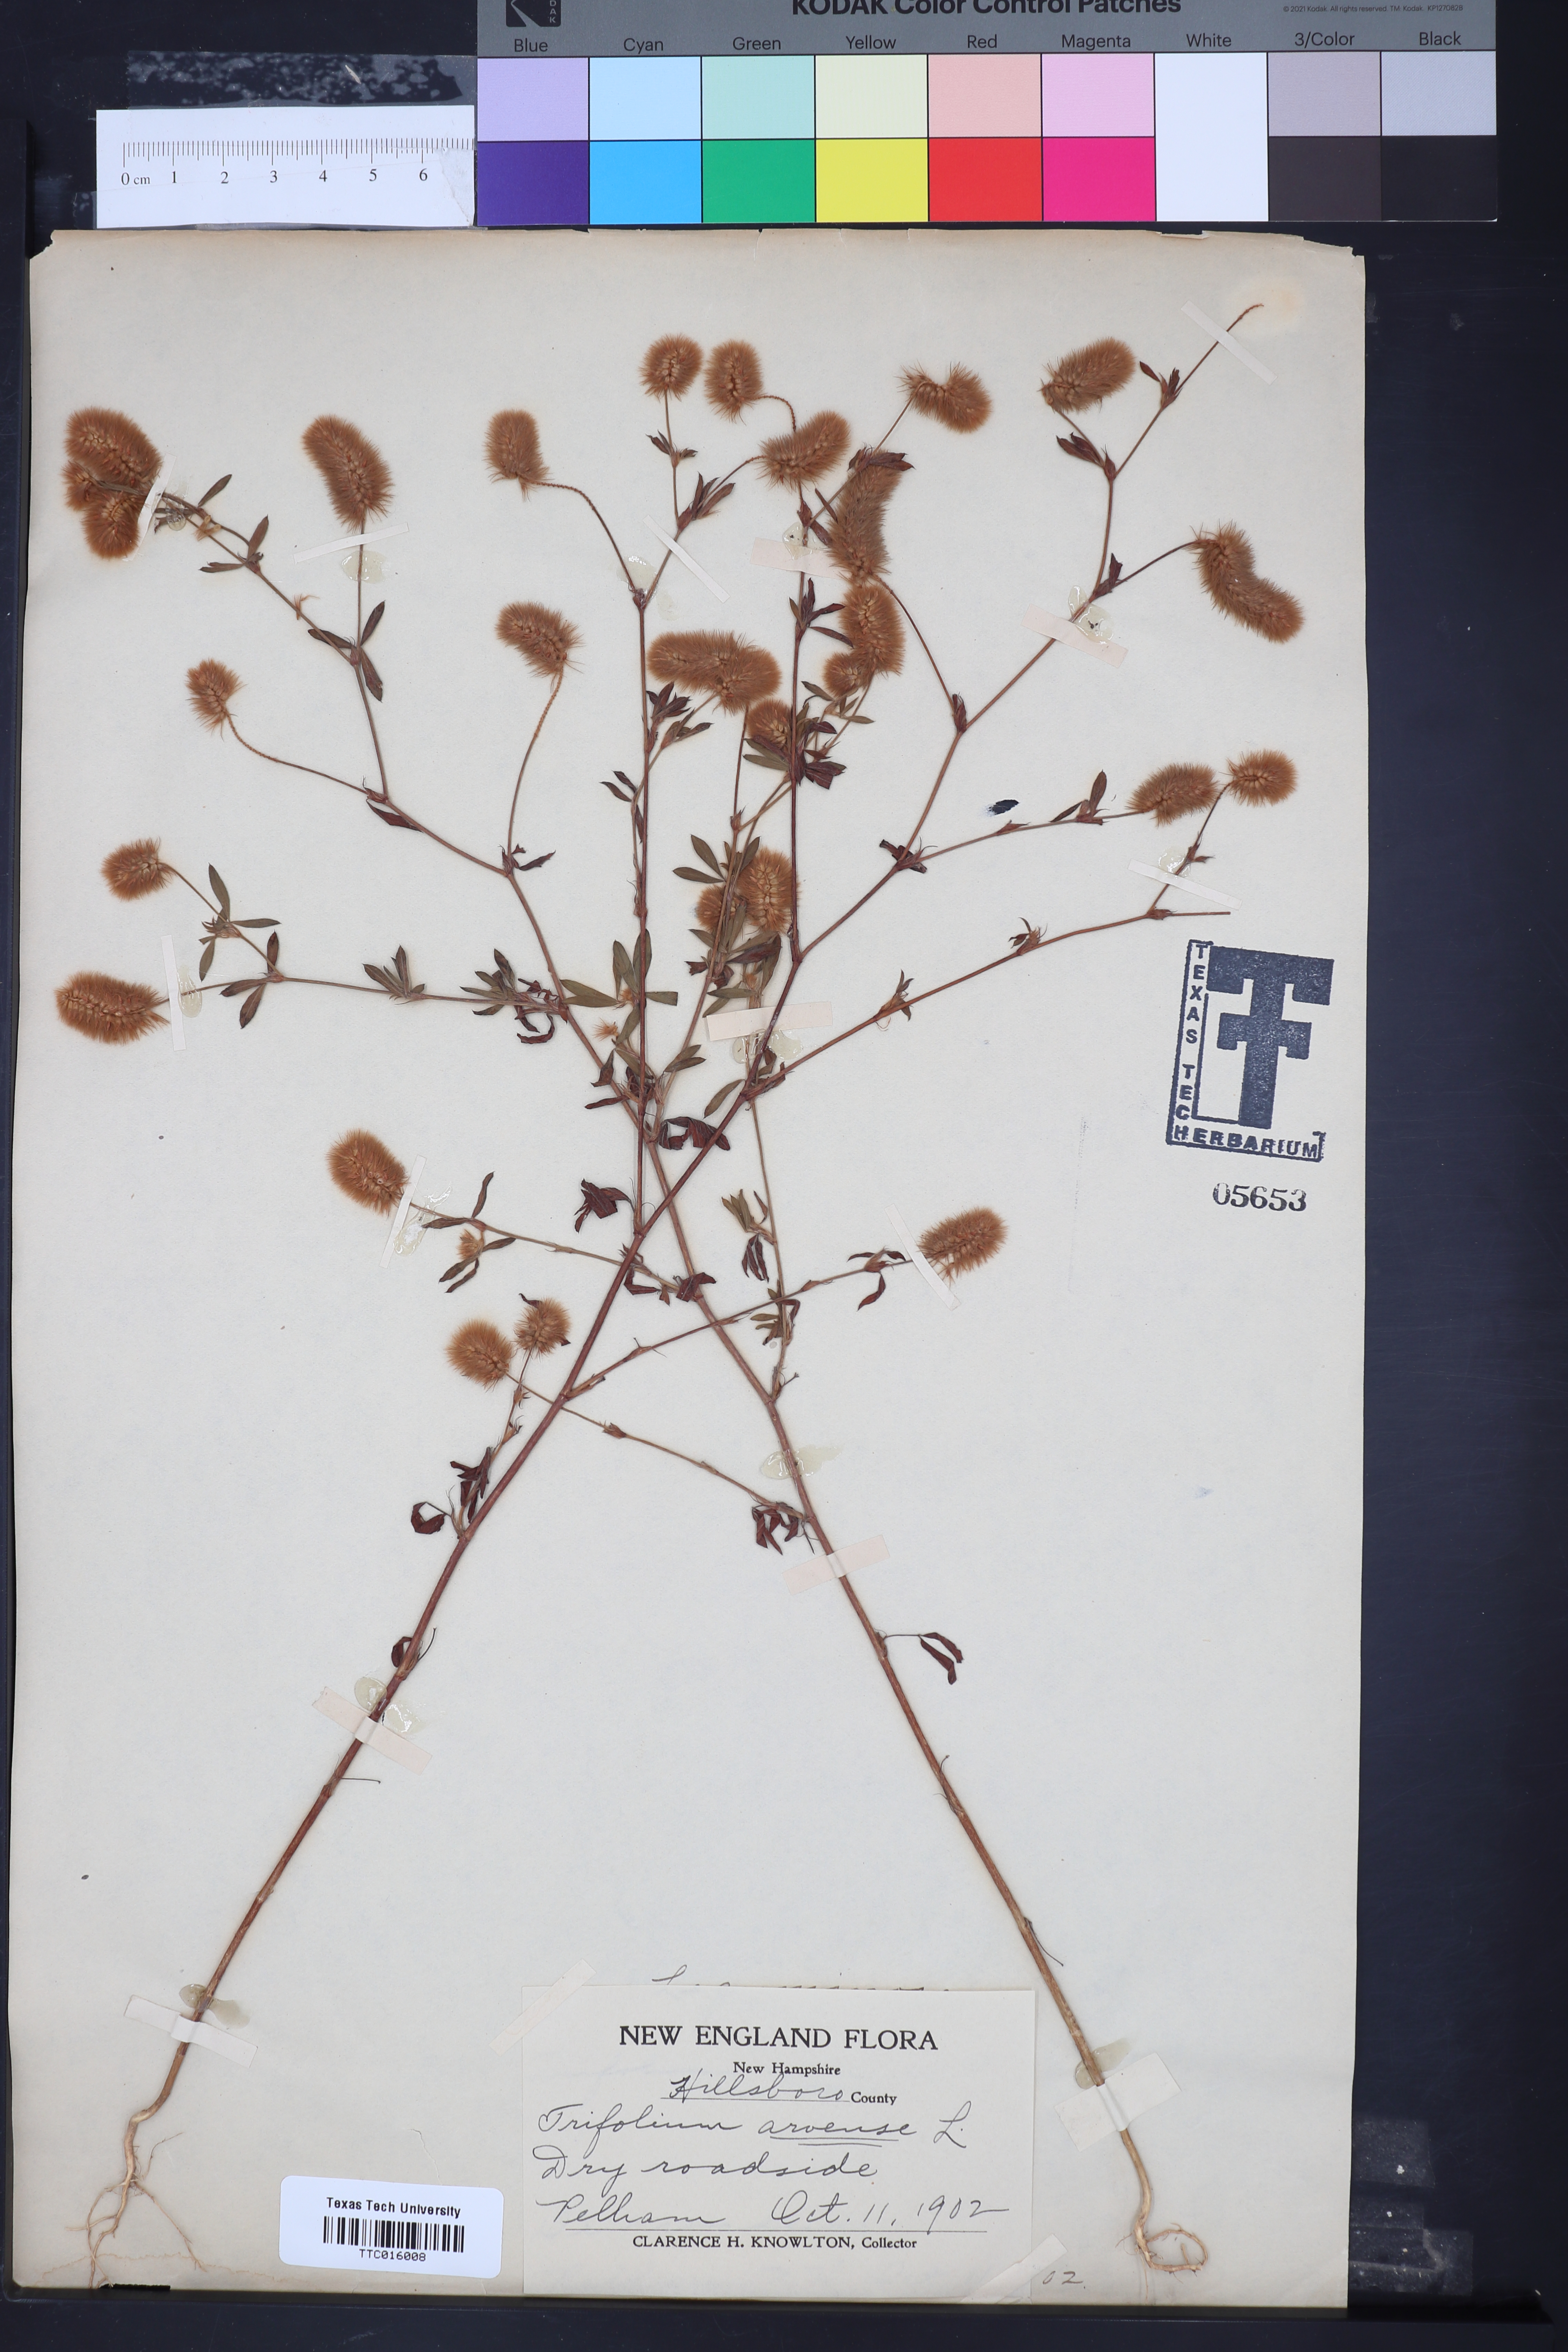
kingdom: Plantae
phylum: Tracheophyta
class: Magnoliopsida
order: Fabales
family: Fabaceae
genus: Trifolium
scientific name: Trifolium arvense
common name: Hare's-foot clover
